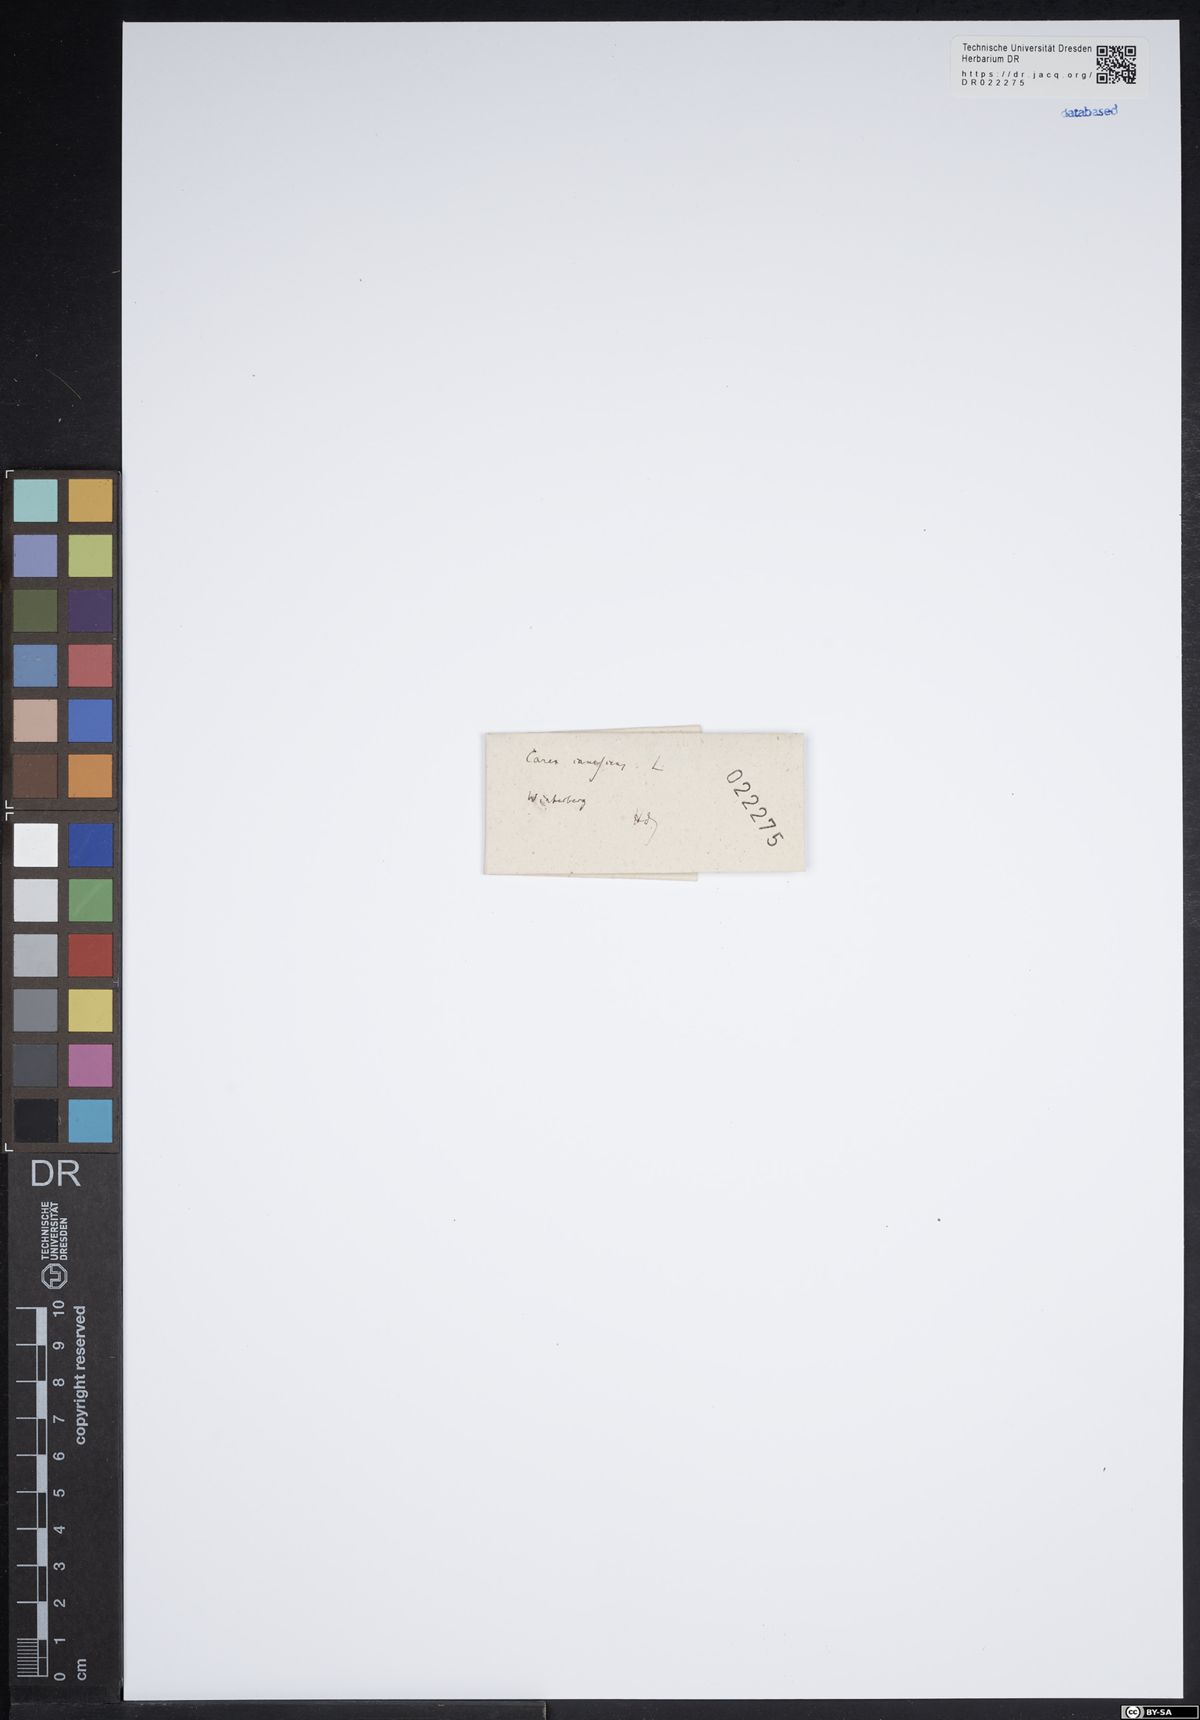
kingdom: Plantae
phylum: Tracheophyta
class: Liliopsida
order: Poales
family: Cyperaceae
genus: Carex
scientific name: Carex canescens
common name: White sedge
